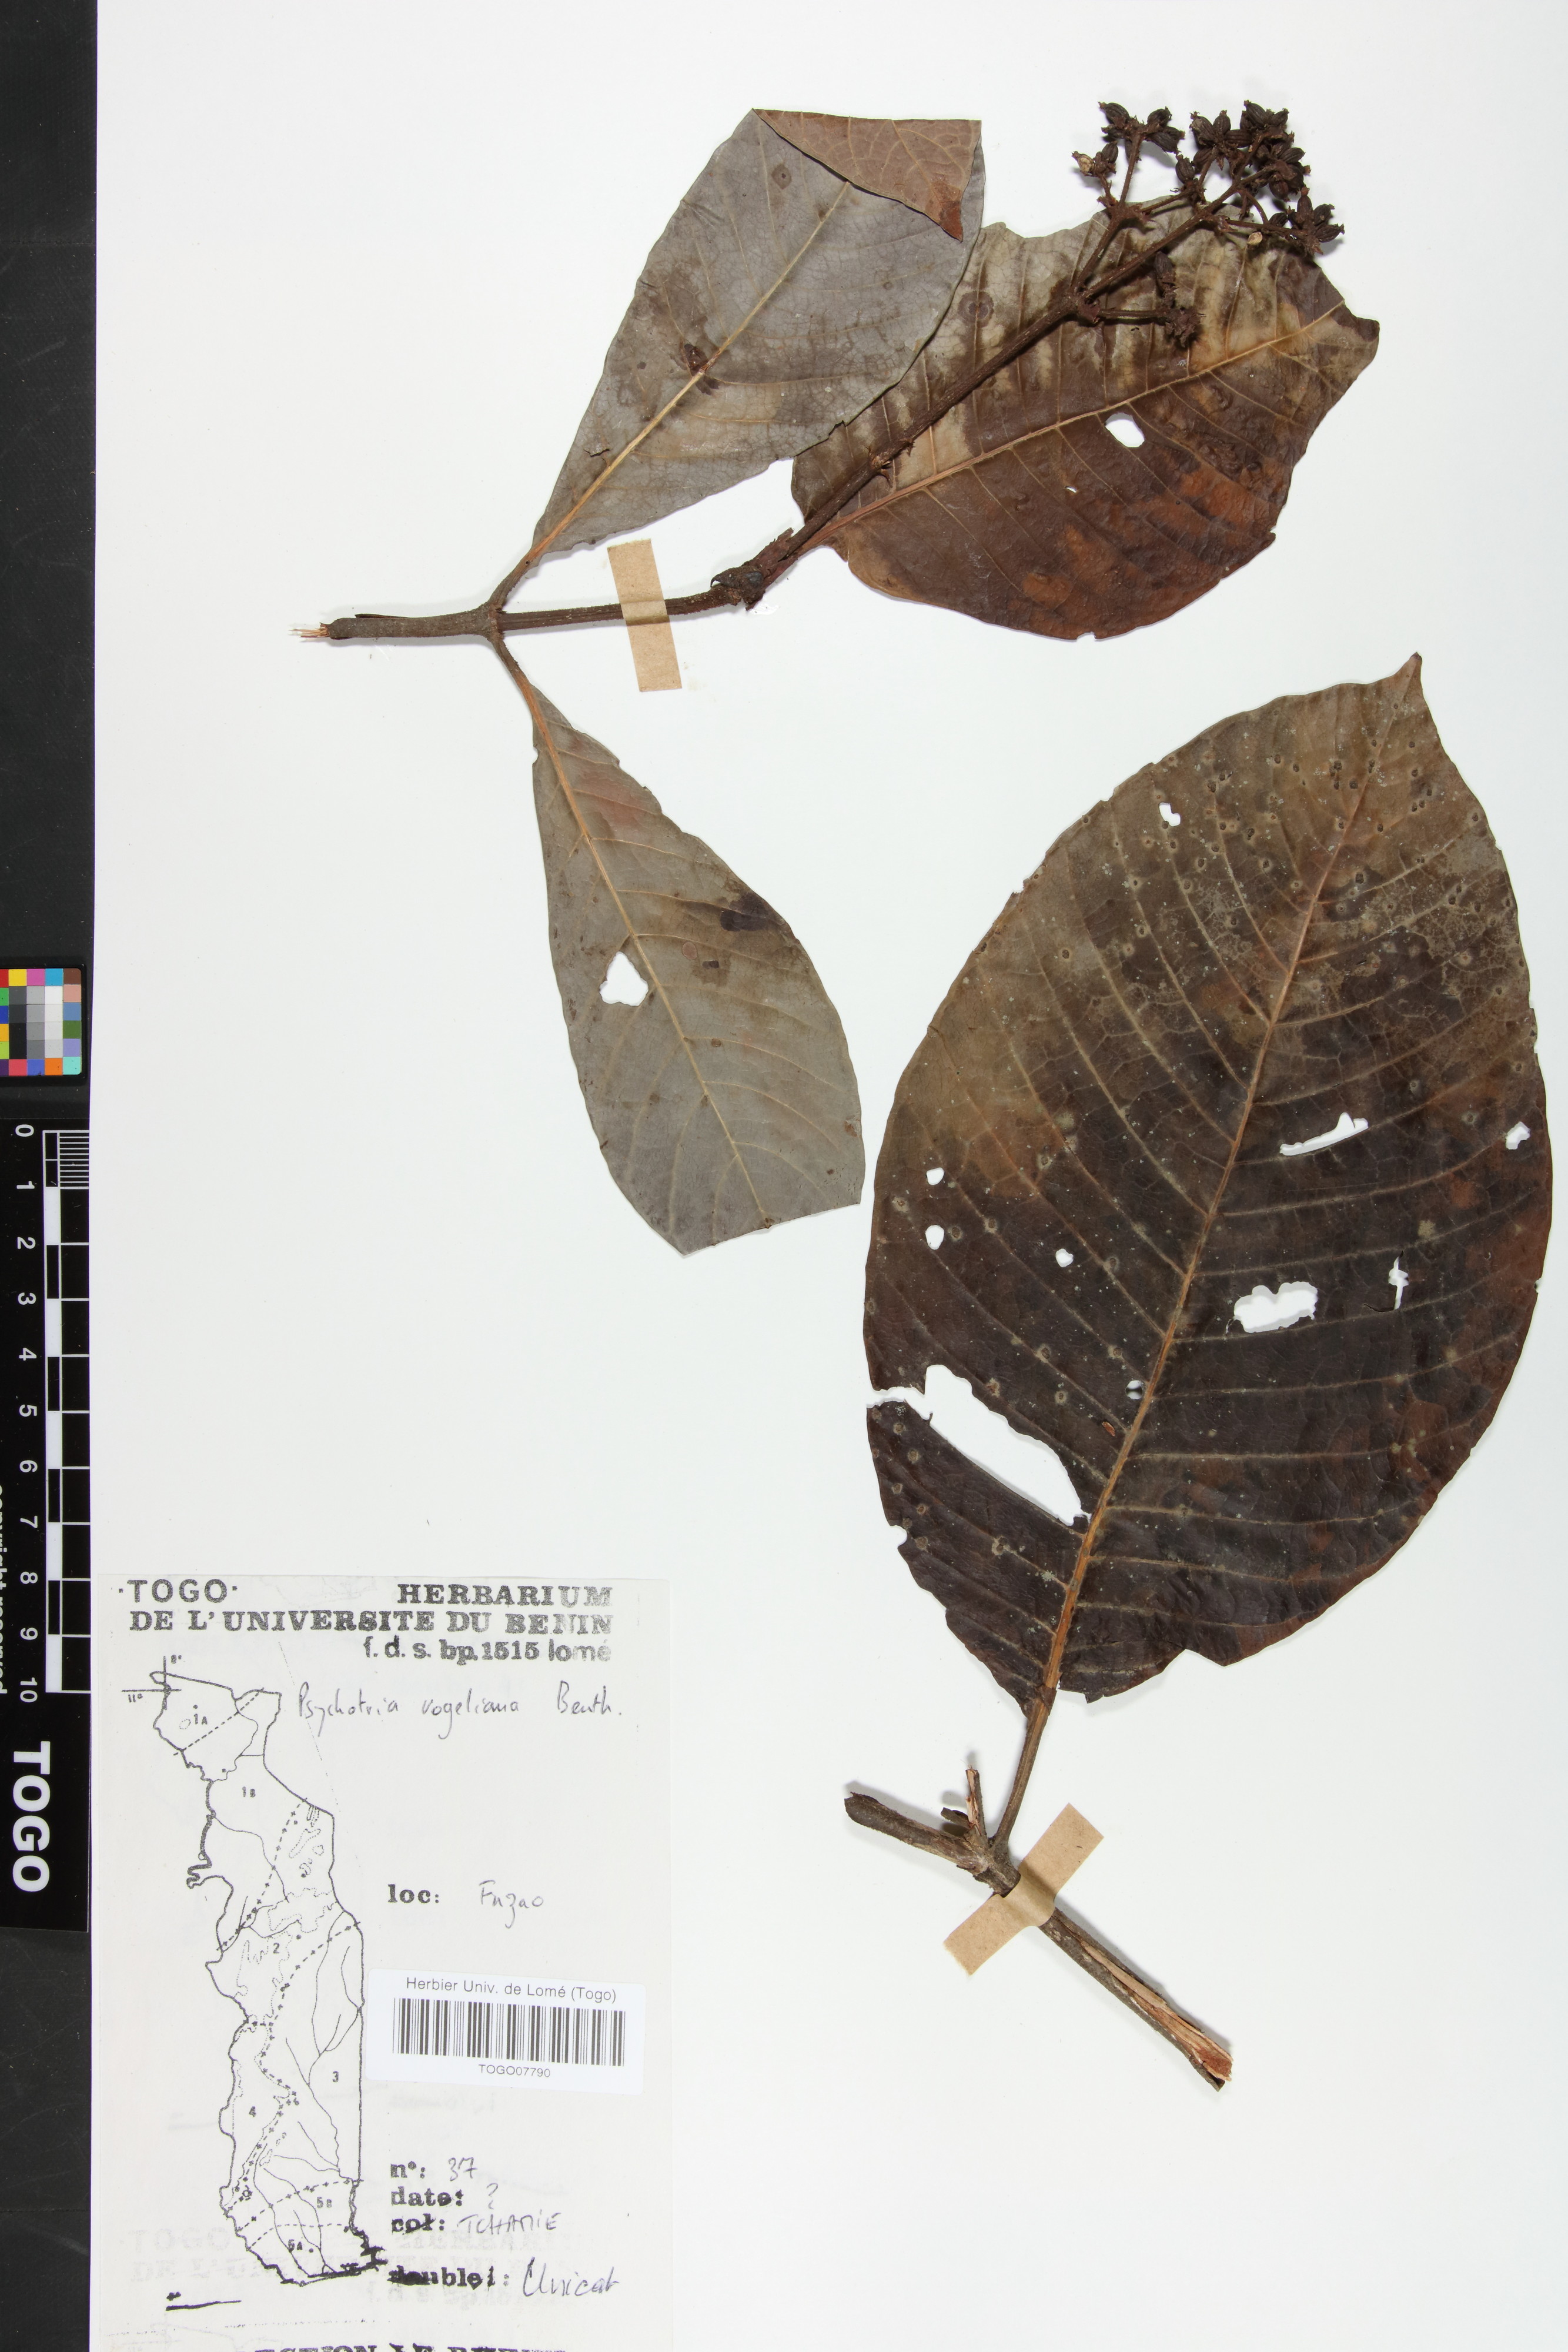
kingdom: Plantae
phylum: Tracheophyta
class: Magnoliopsida
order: Gentianales
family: Rubiaceae
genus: Psychotria
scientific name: Psychotria vogeliana
